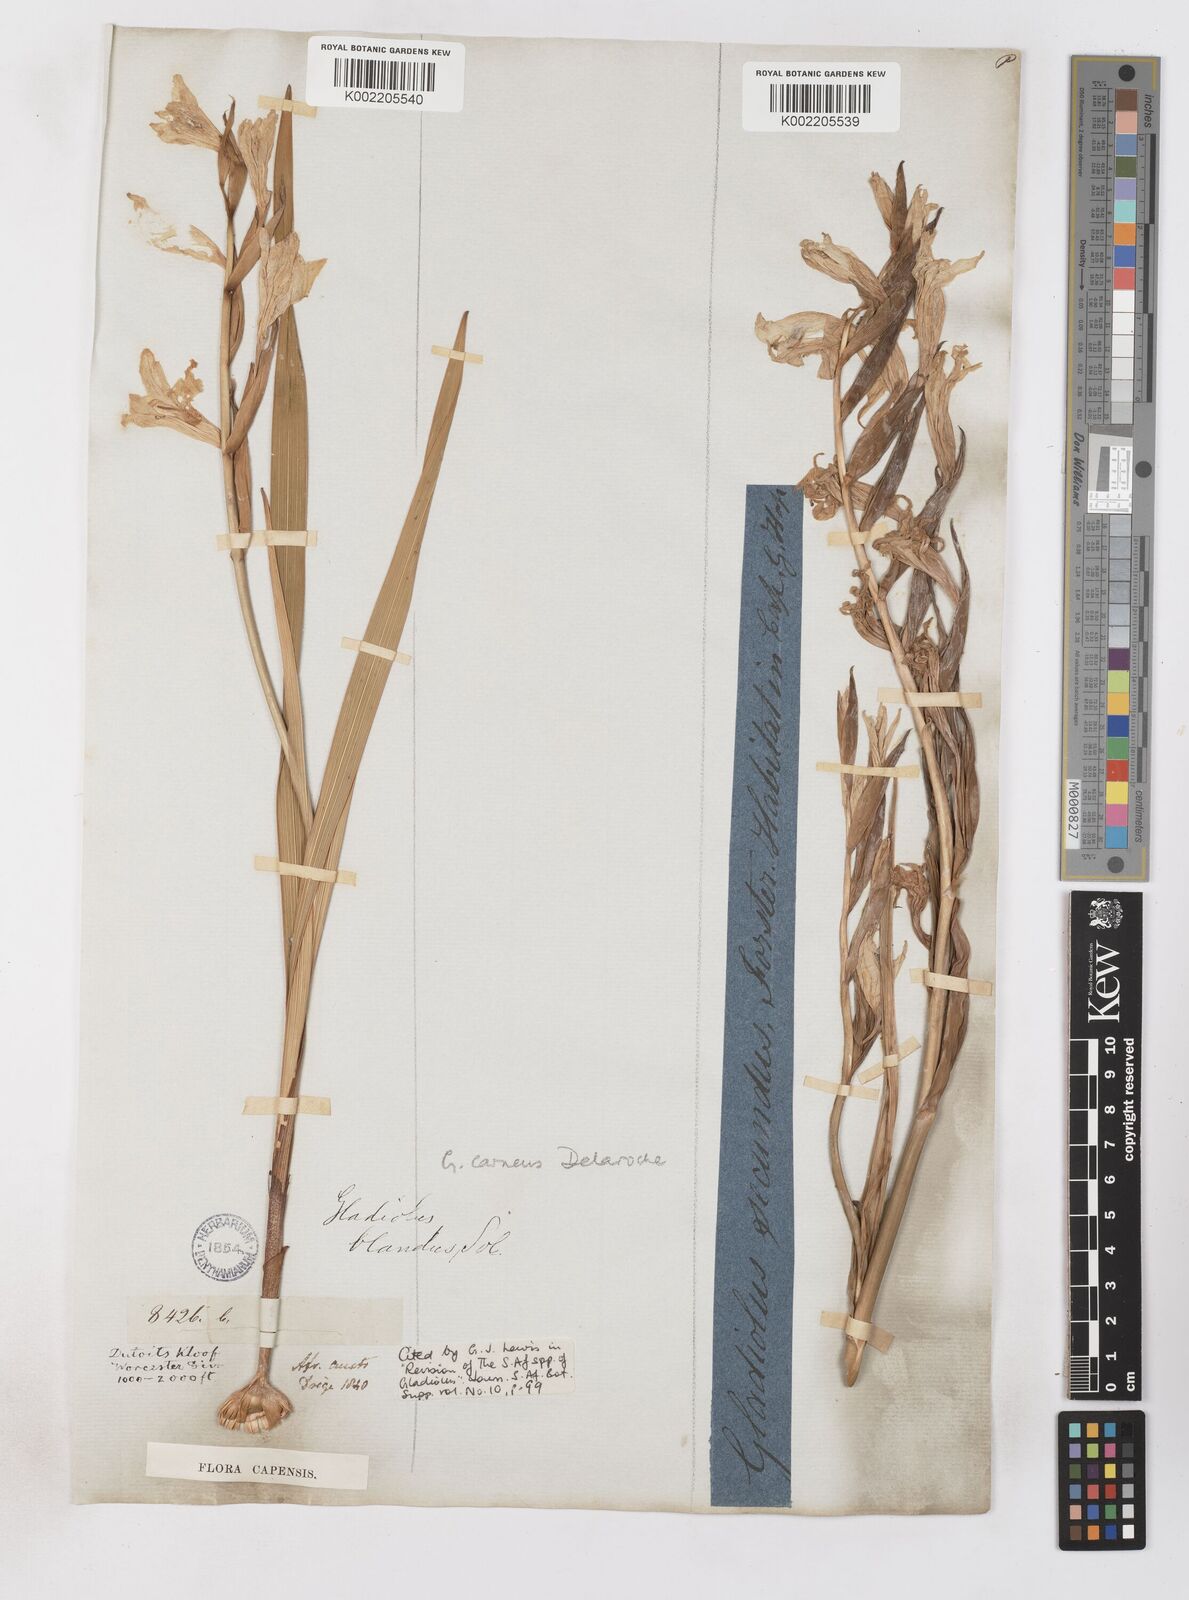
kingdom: Plantae
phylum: Tracheophyta
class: Liliopsida
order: Asparagales
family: Iridaceae
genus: Gladiolus
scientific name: Gladiolus carneus
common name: Painted-lady
